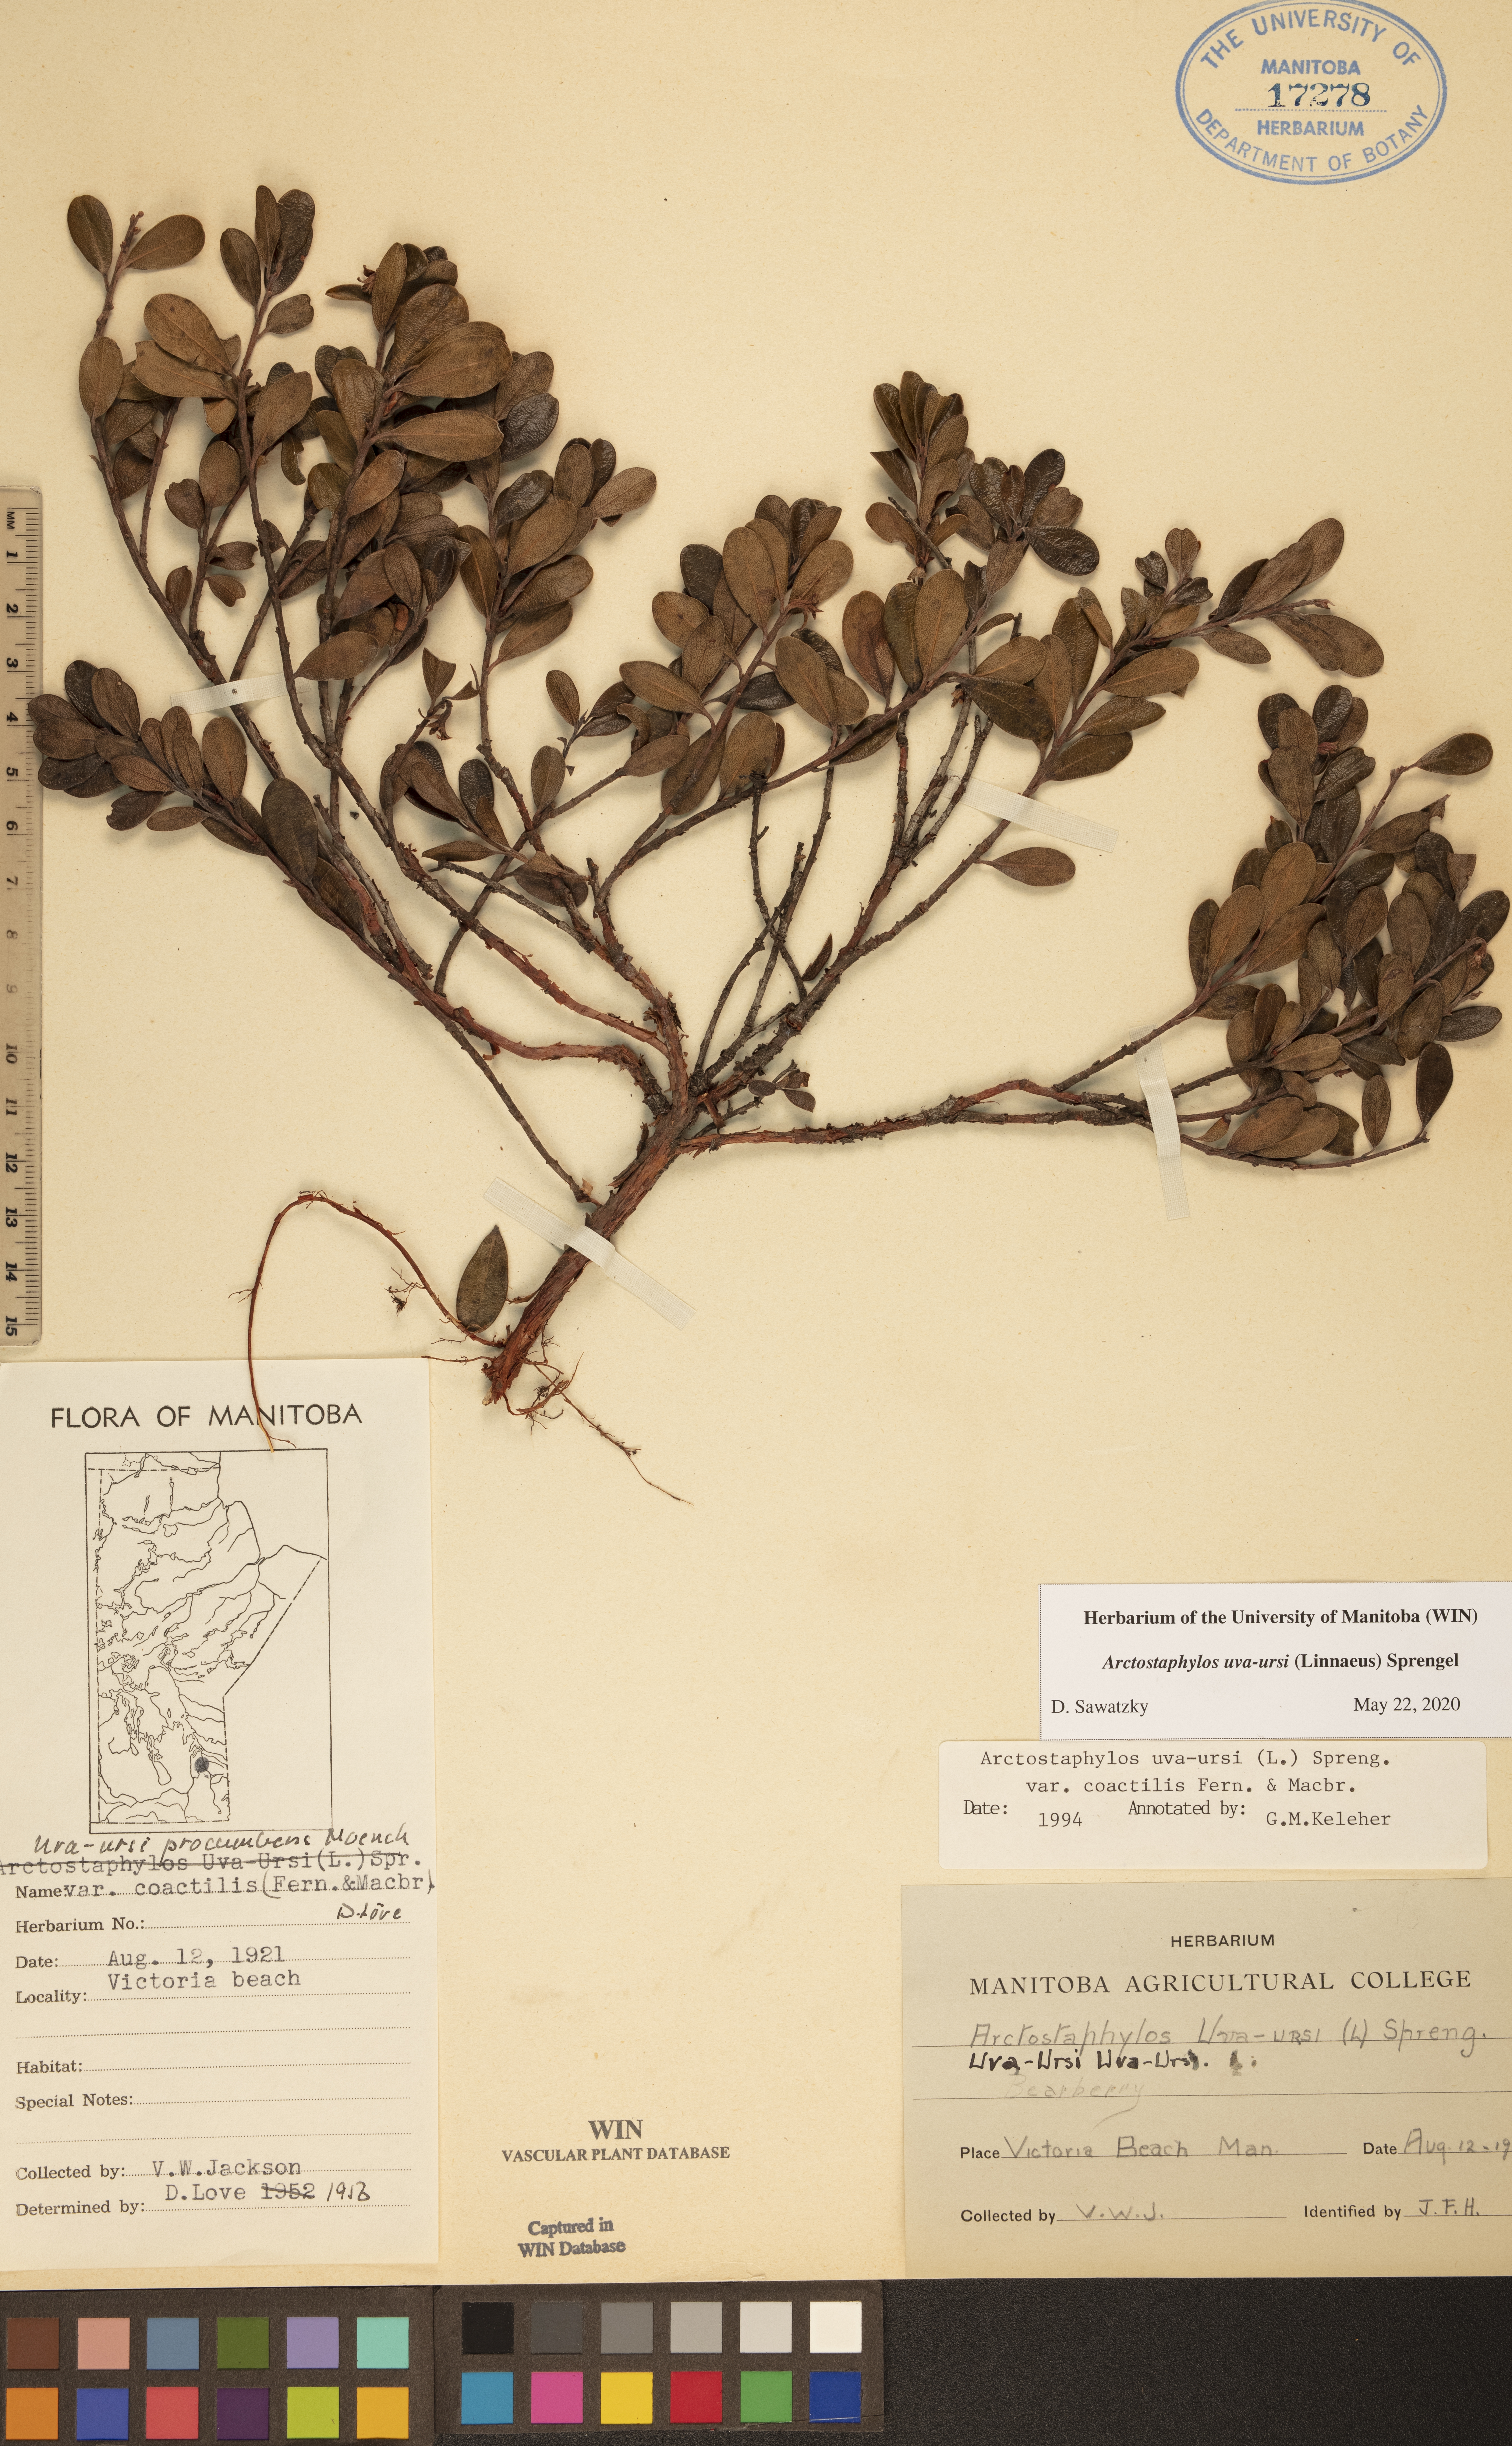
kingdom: Plantae
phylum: Tracheophyta
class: Magnoliopsida
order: Ericales
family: Ericaceae
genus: Arctostaphylos
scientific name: Arctostaphylos uva-ursi
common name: Bearberry
